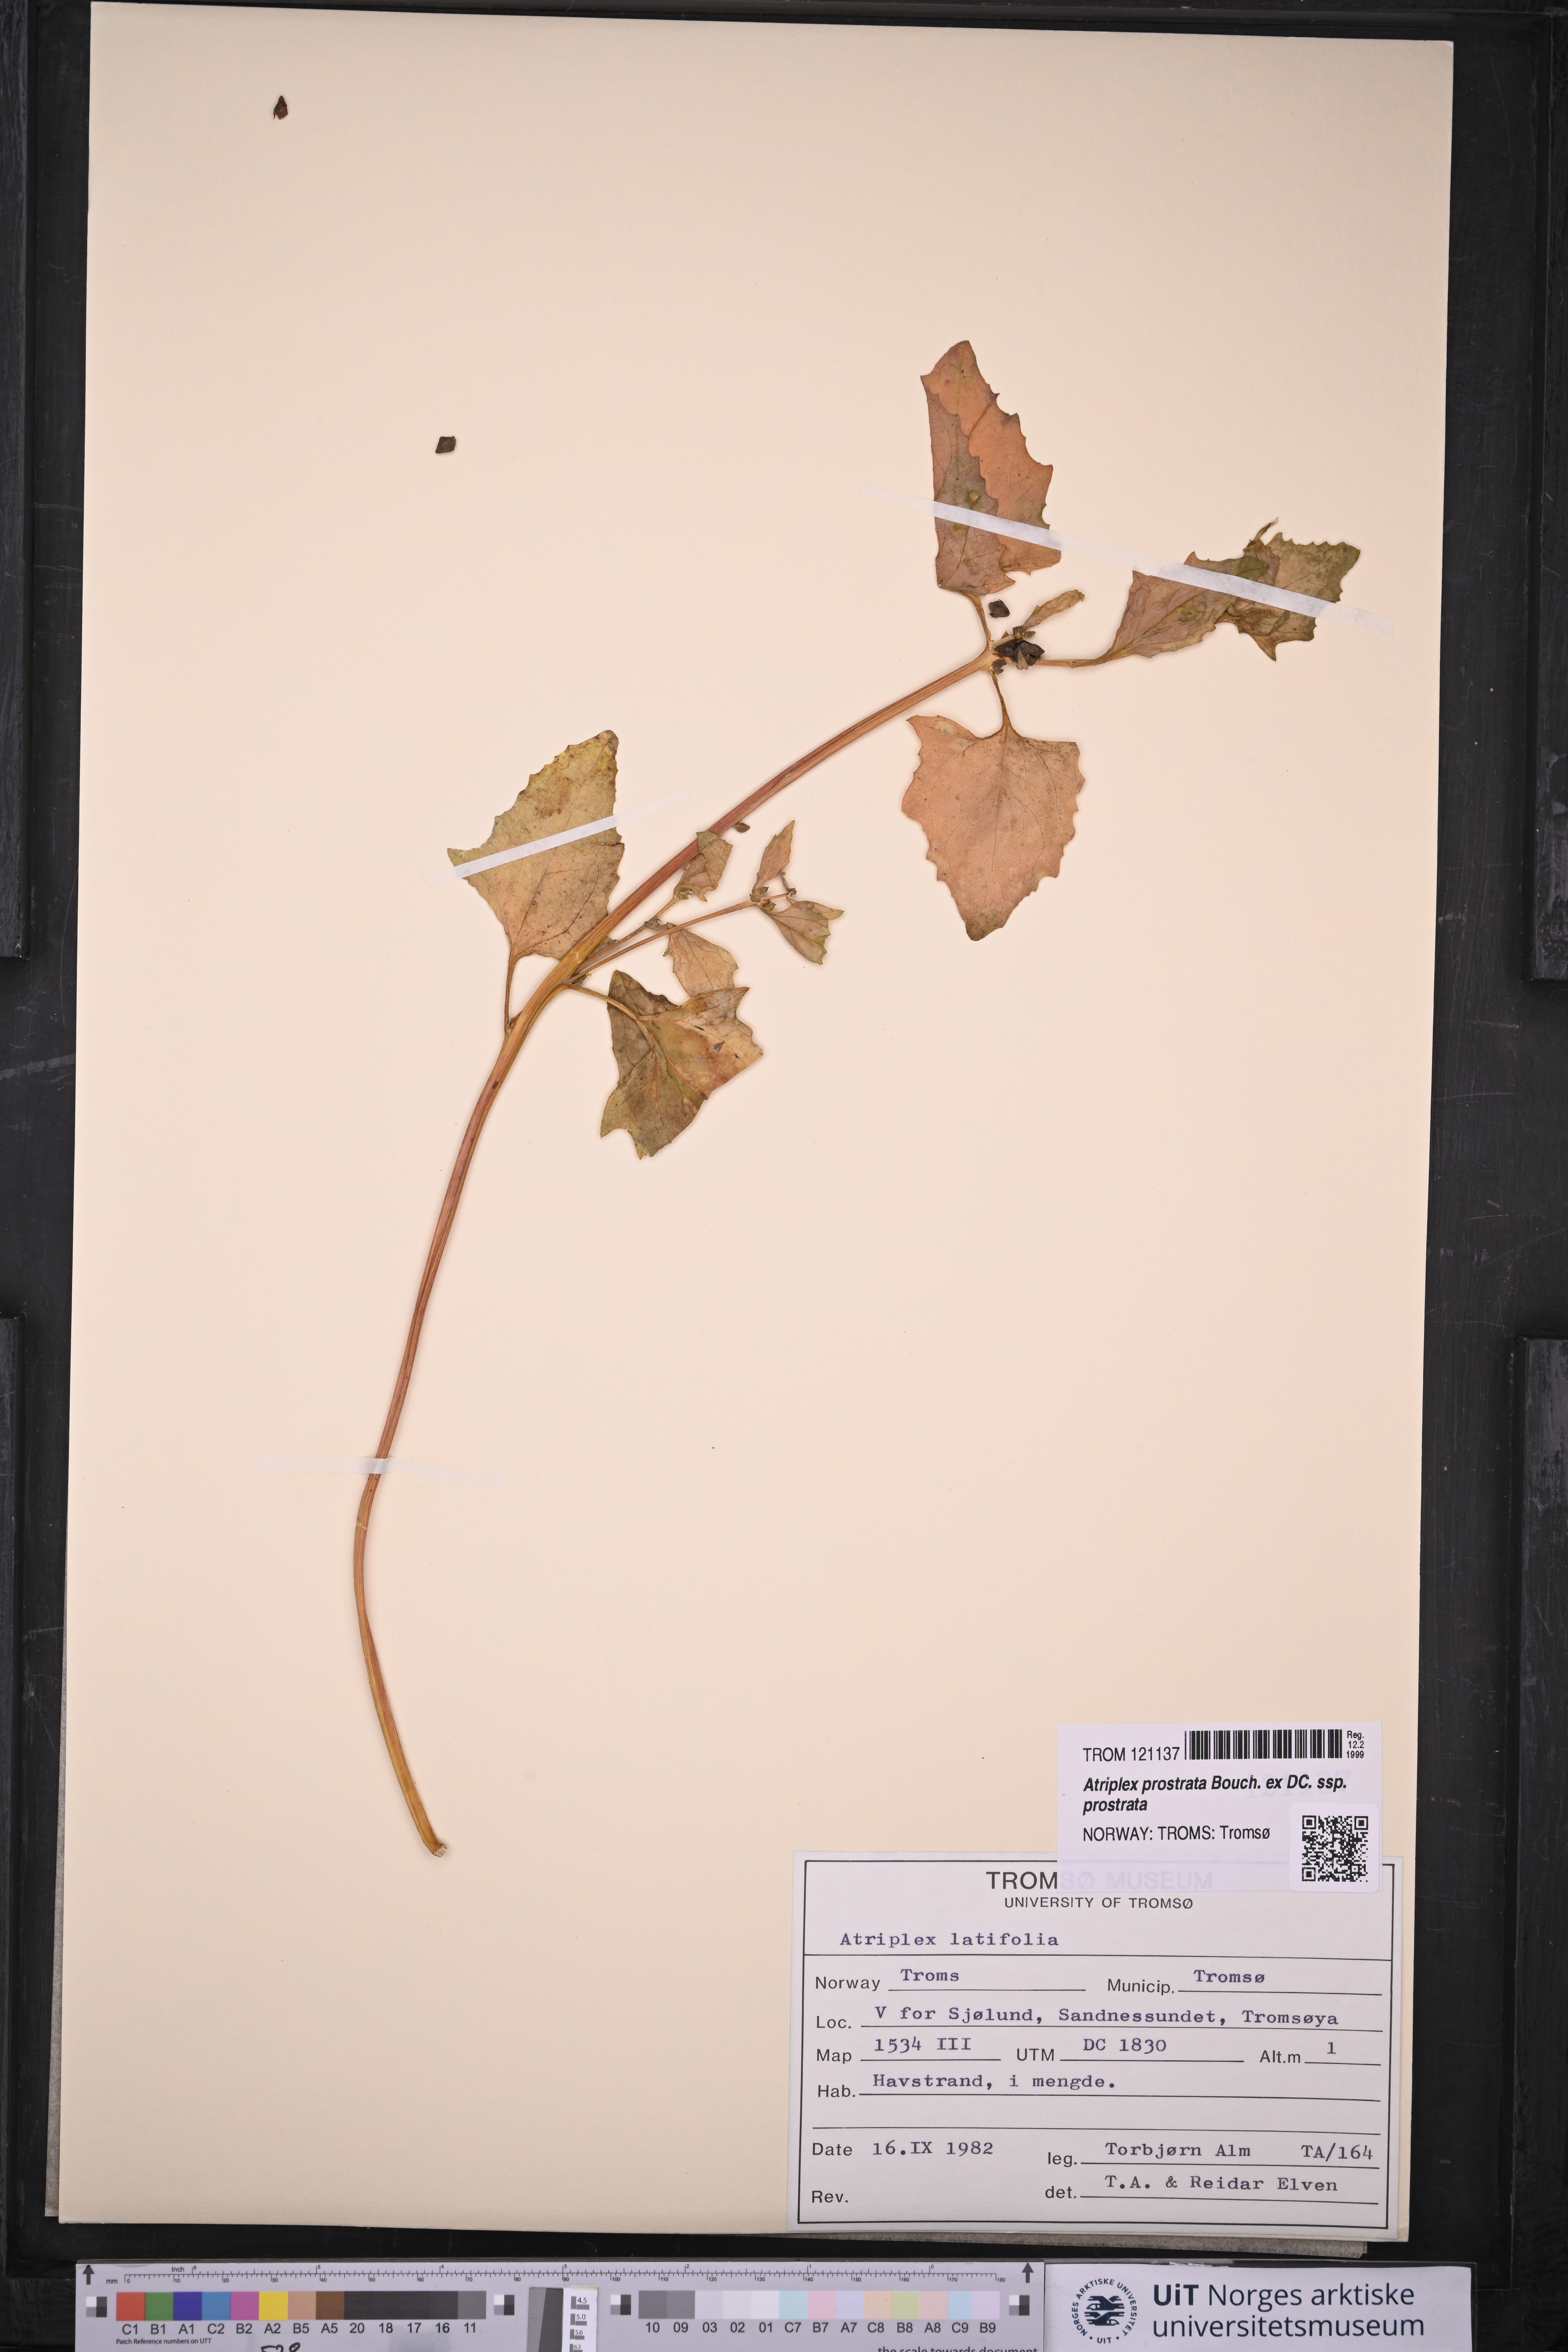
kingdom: Plantae
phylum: Tracheophyta
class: Magnoliopsida
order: Caryophyllales
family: Amaranthaceae
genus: Atriplex
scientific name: Atriplex prostrata
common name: Spear-leaved orache
